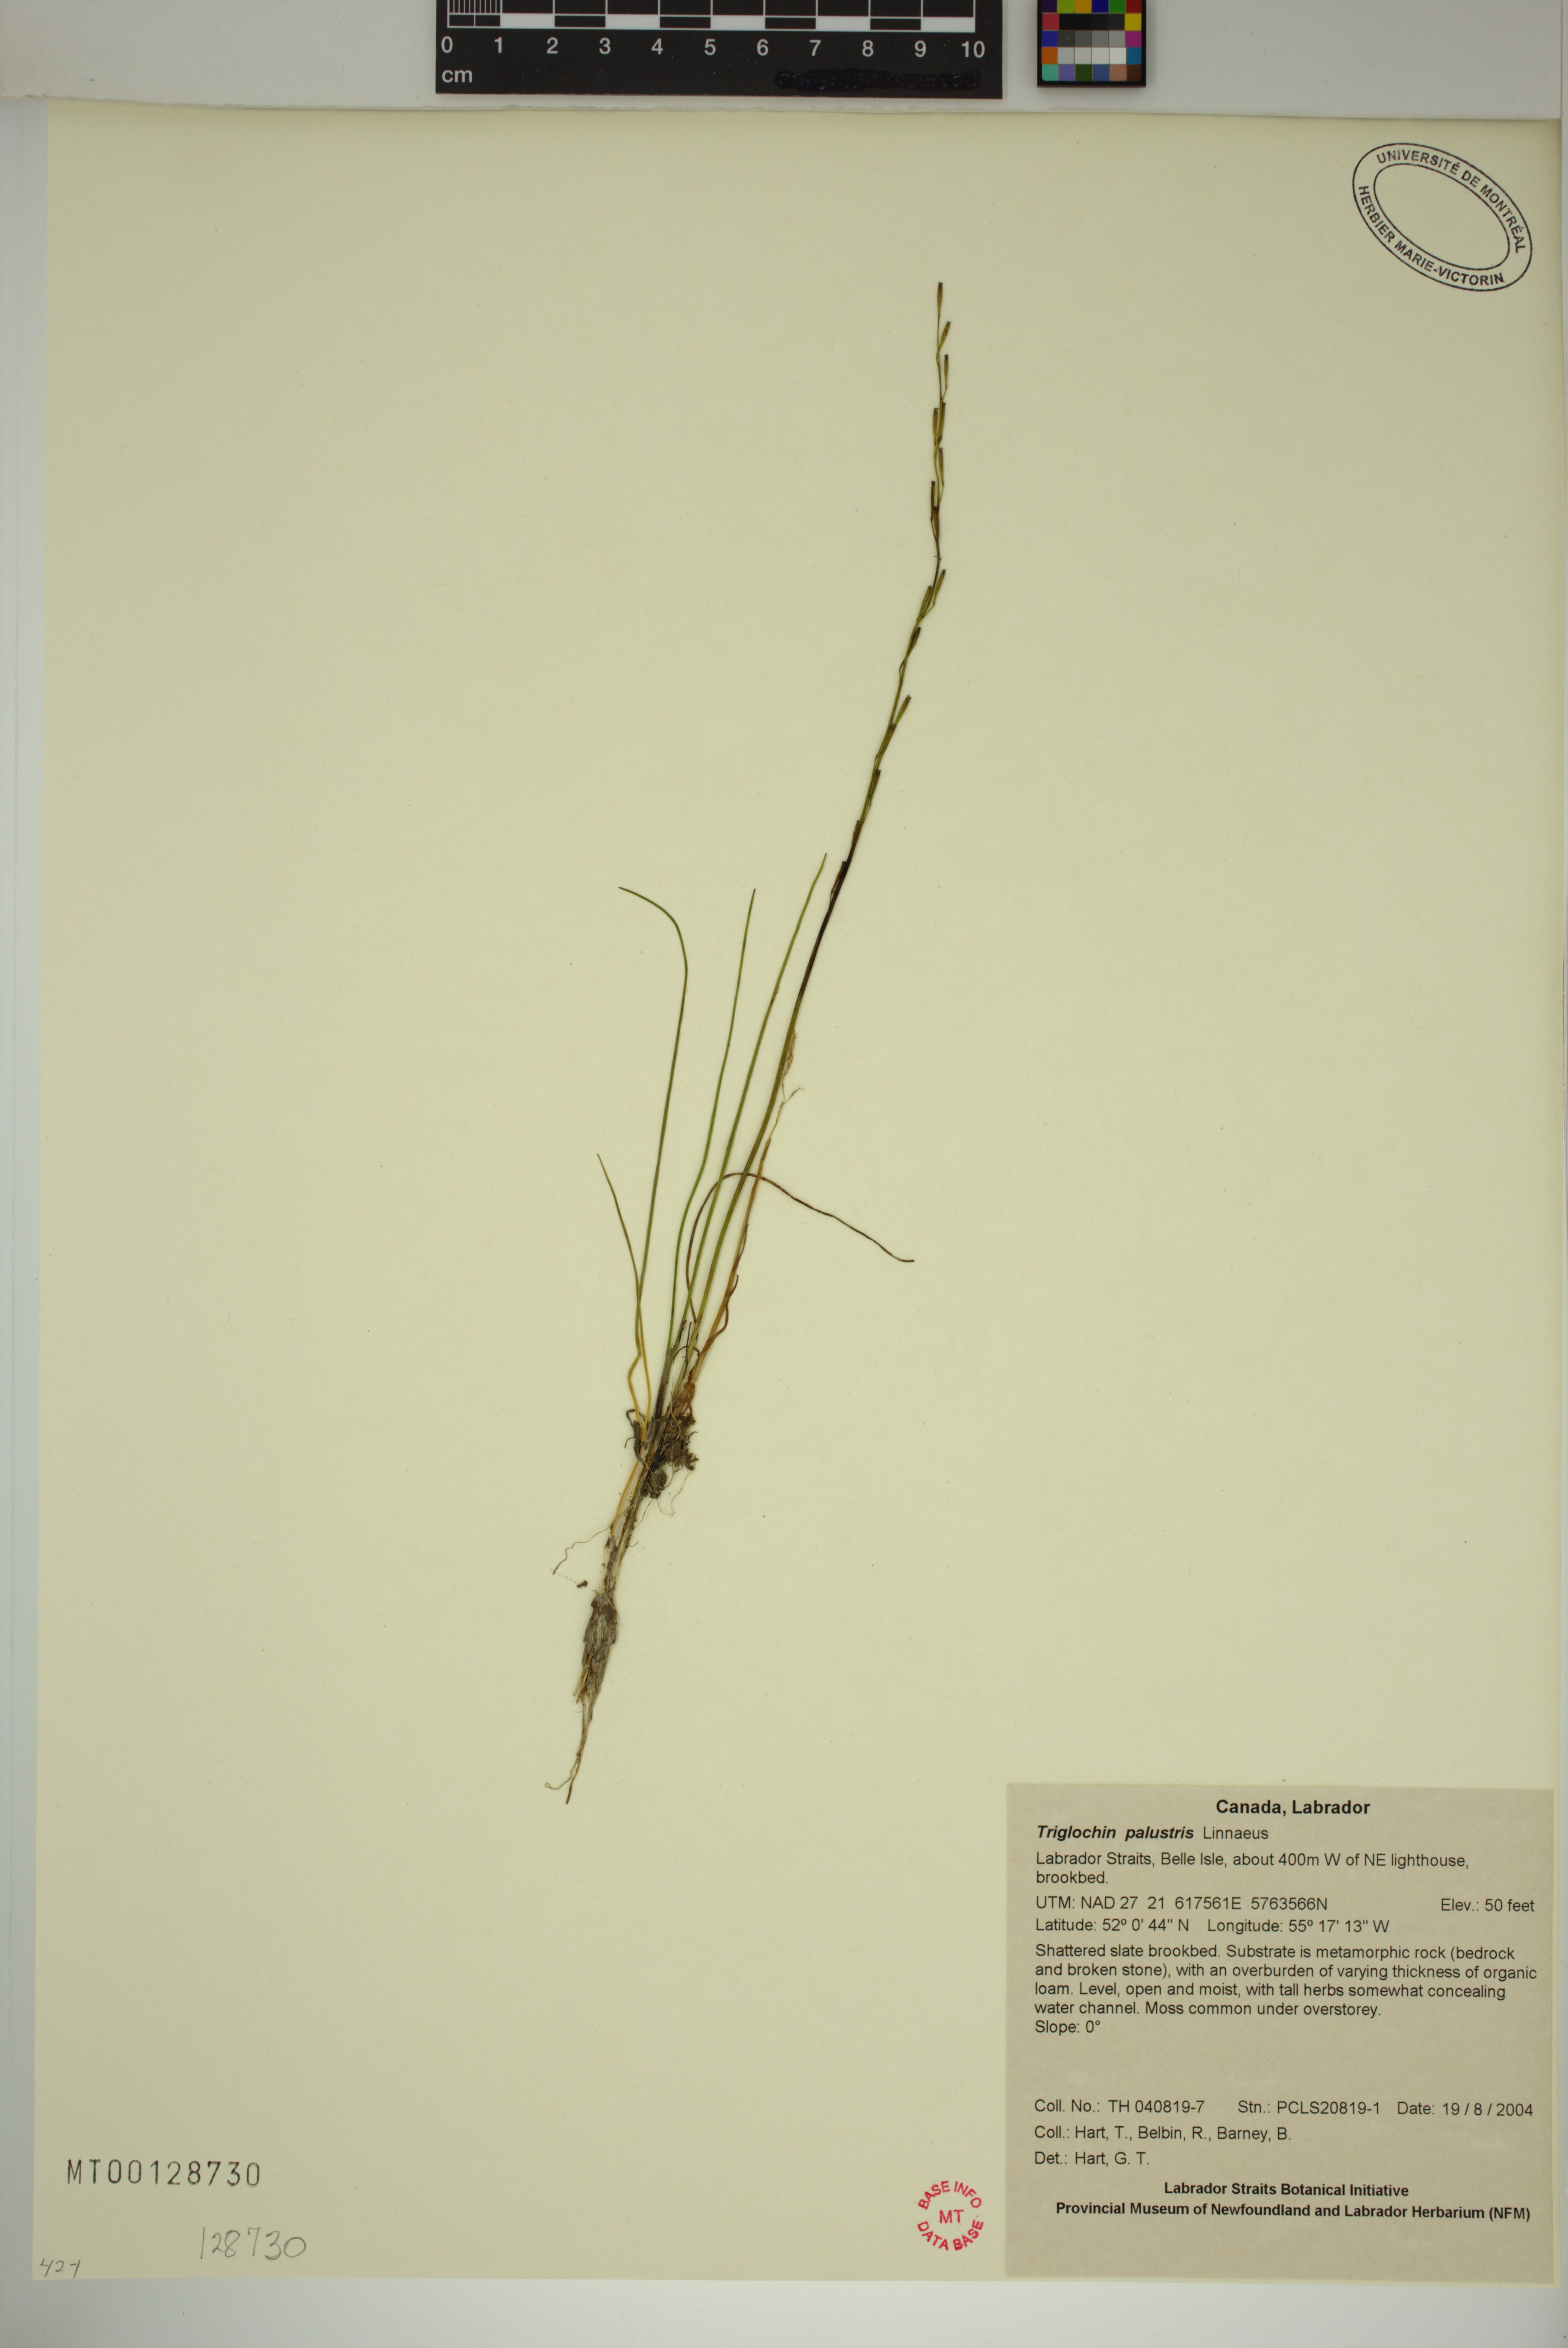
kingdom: Plantae
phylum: Tracheophyta
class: Liliopsida
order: Alismatales
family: Juncaginaceae
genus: Triglochin
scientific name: Triglochin palustris
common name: Marsh arrowgrass
